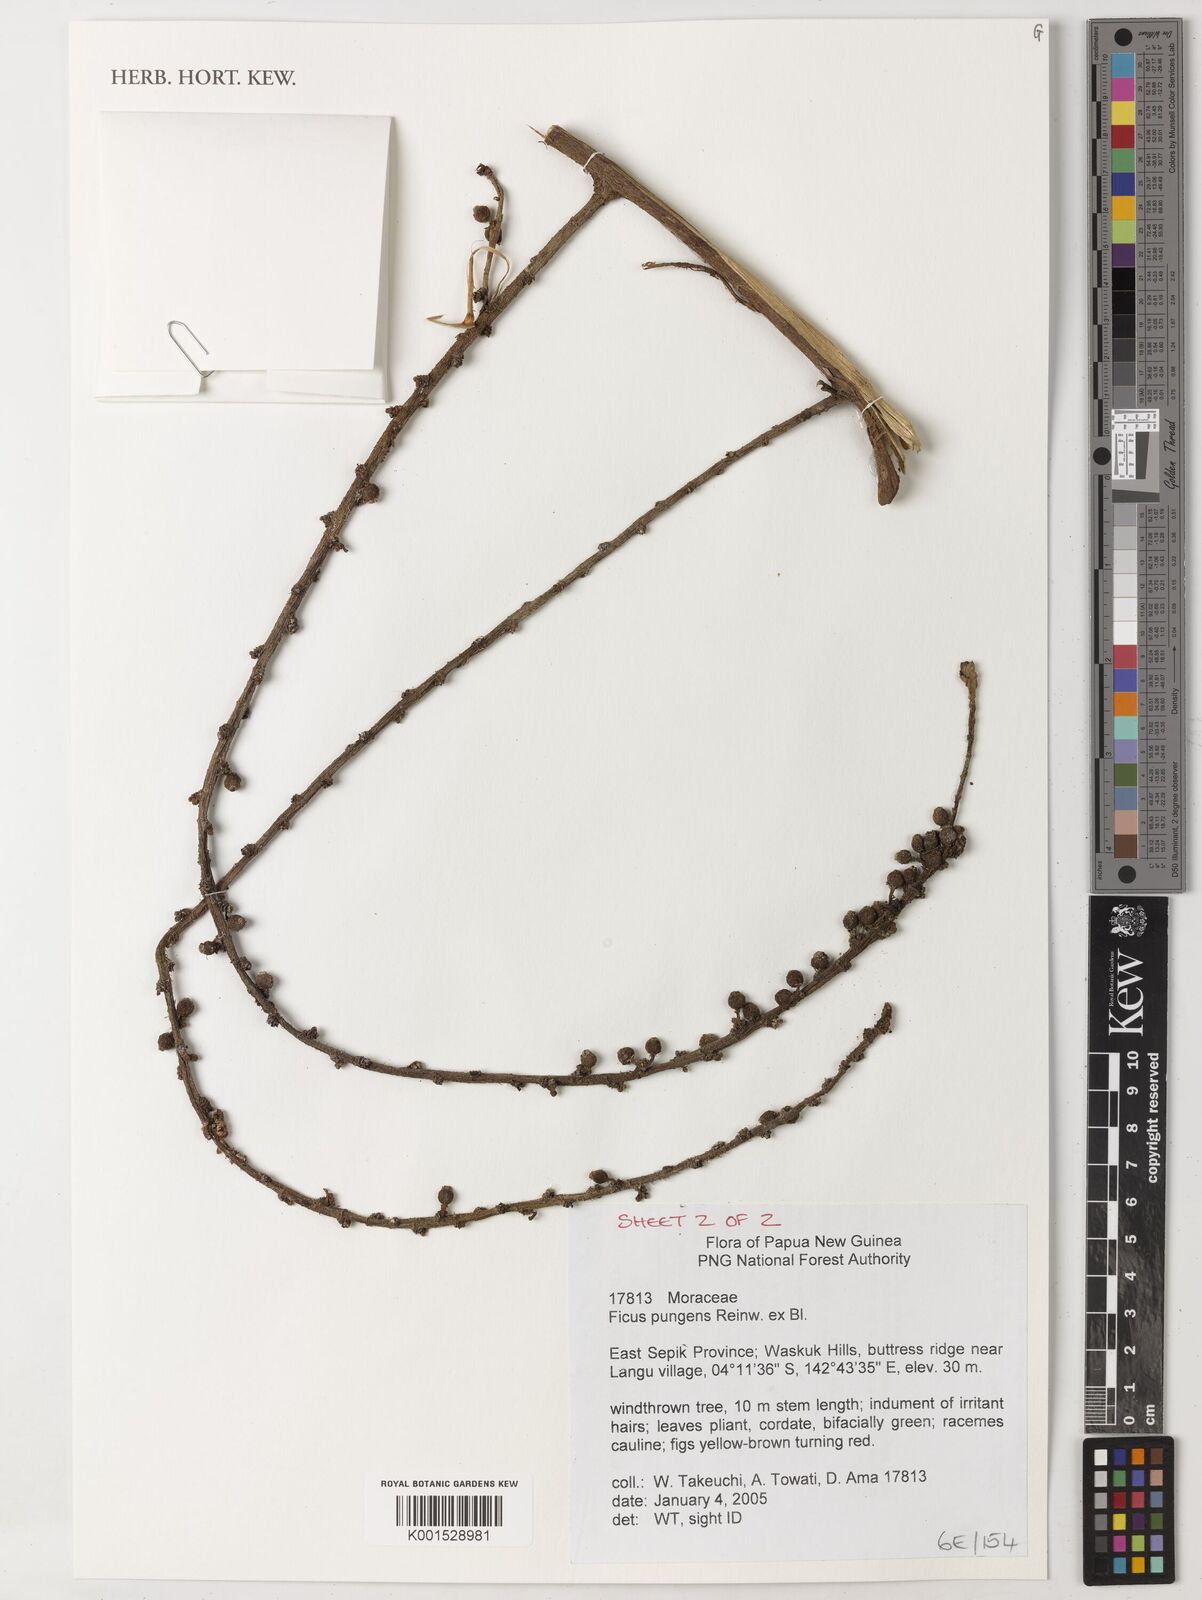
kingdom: Plantae
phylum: Tracheophyta
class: Magnoliopsida
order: Rosales
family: Moraceae
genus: Ficus
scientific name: Ficus pungens
